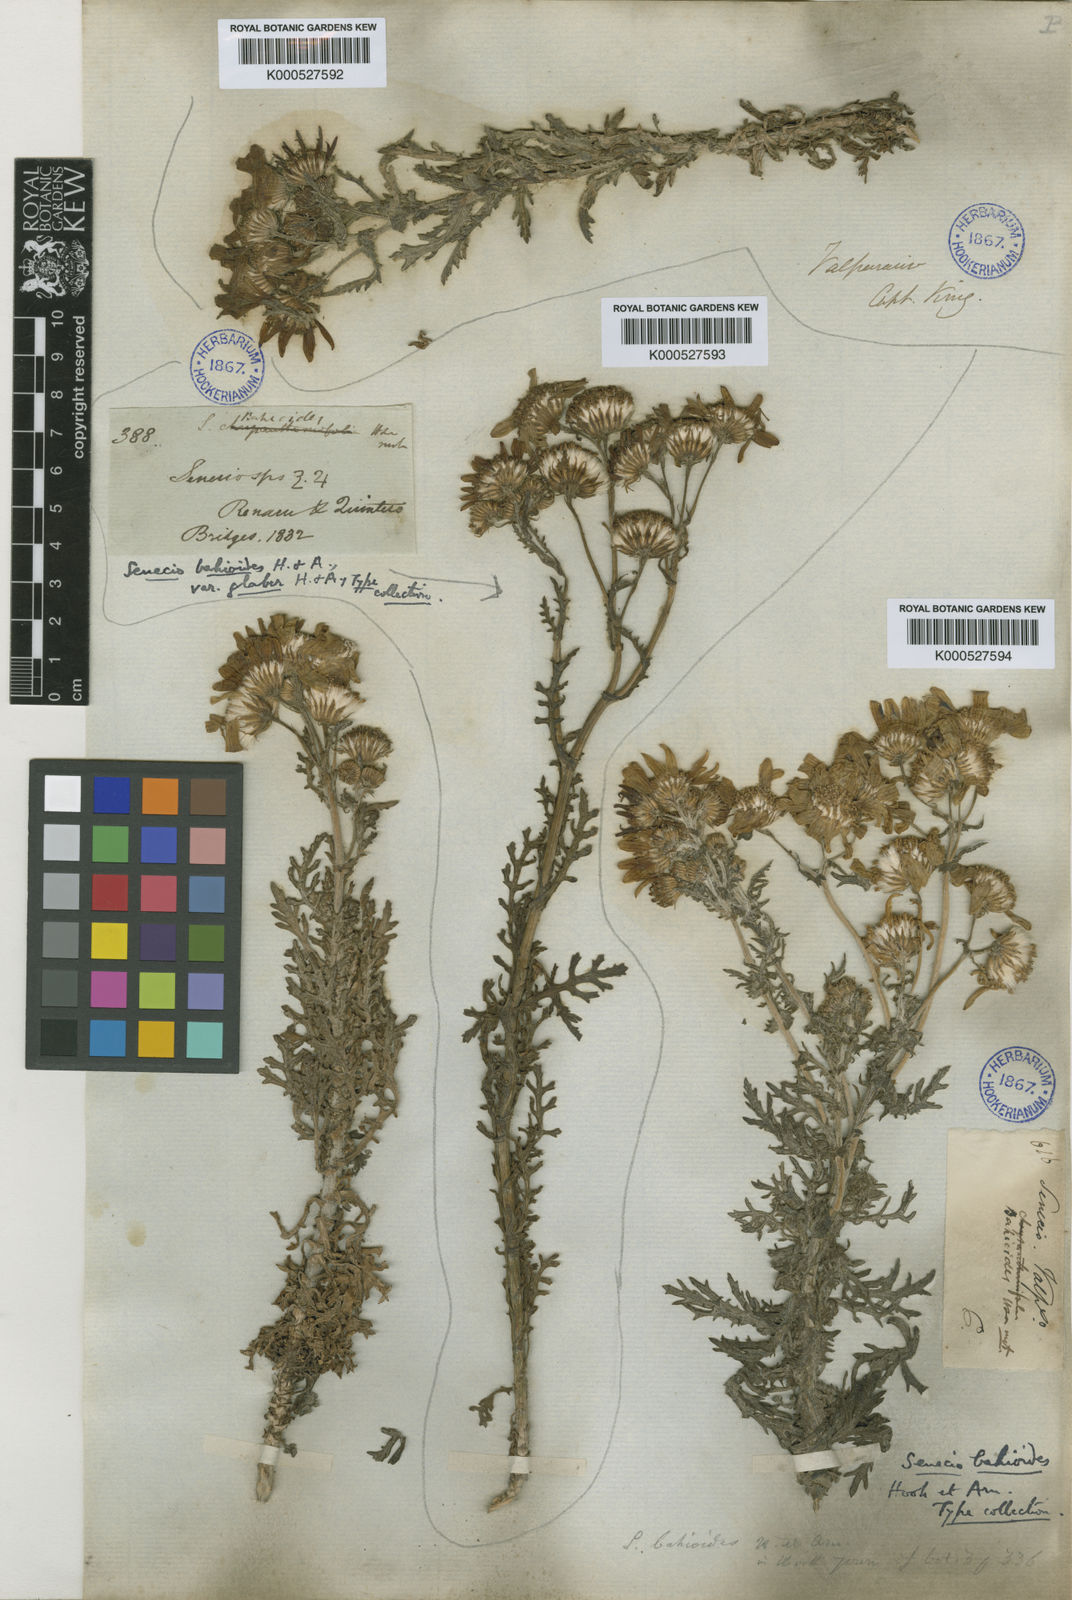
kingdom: Plantae
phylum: Tracheophyta
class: Magnoliopsida
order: Asterales
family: Asteraceae
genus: Senecio
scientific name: Senecio bahioides
